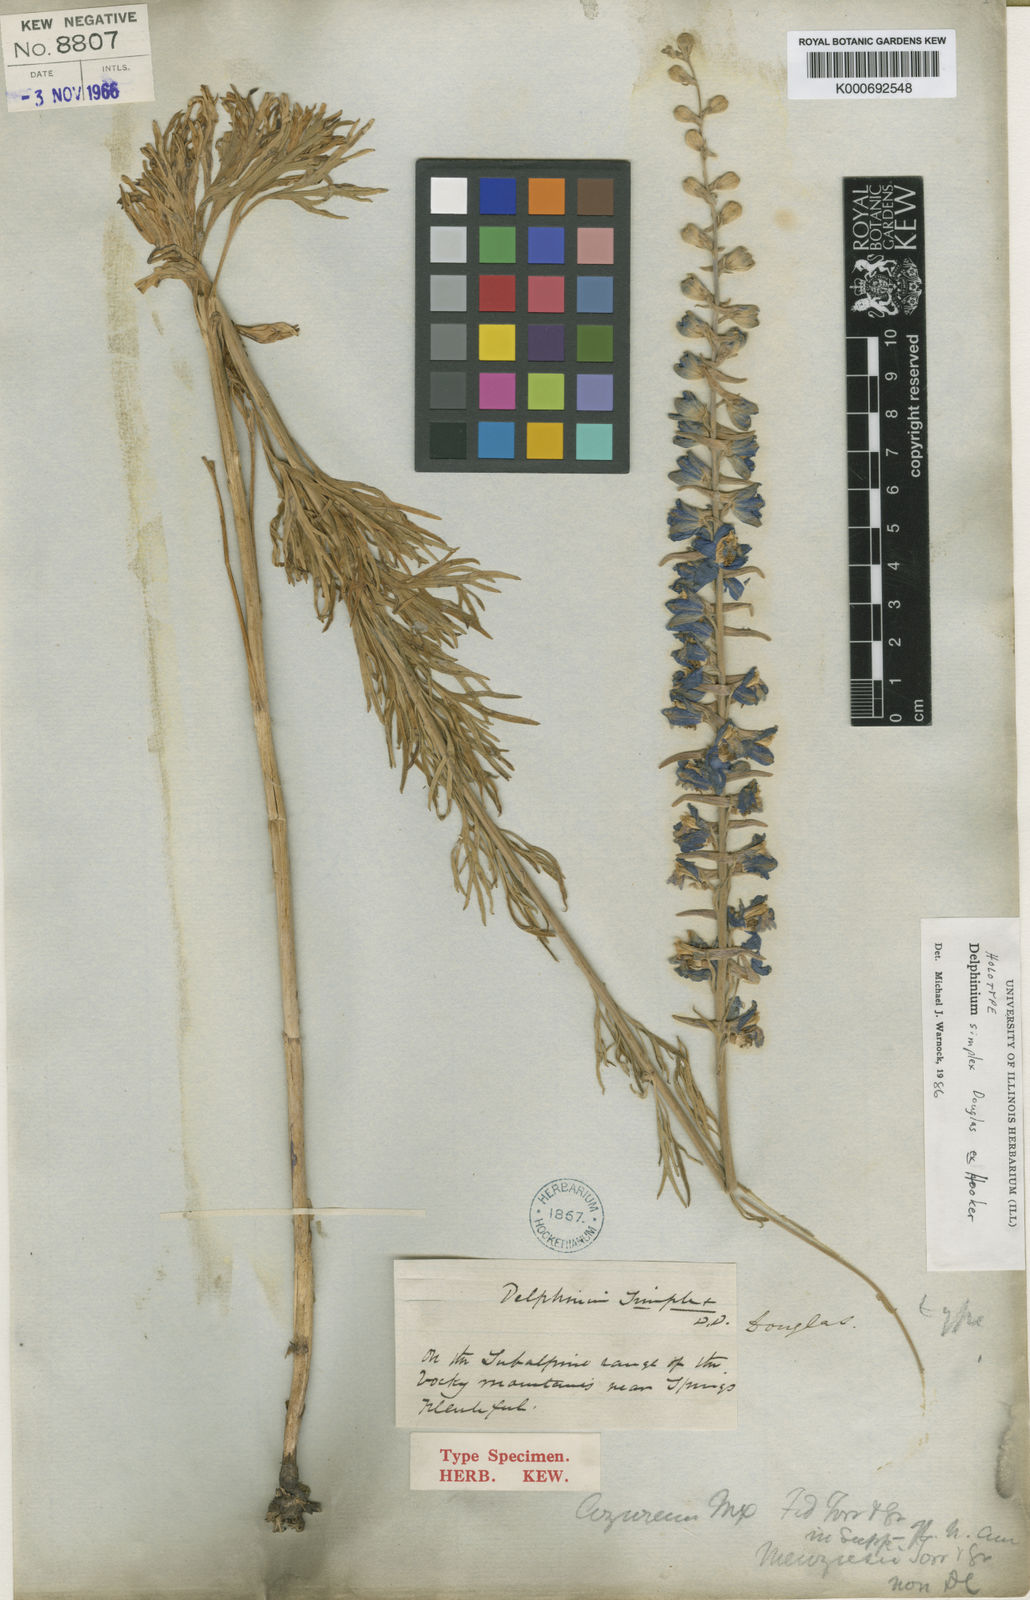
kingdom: Plantae
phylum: Tracheophyta
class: Magnoliopsida
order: Ranunculales
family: Ranunculaceae
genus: Delphinium
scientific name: Delphinium
